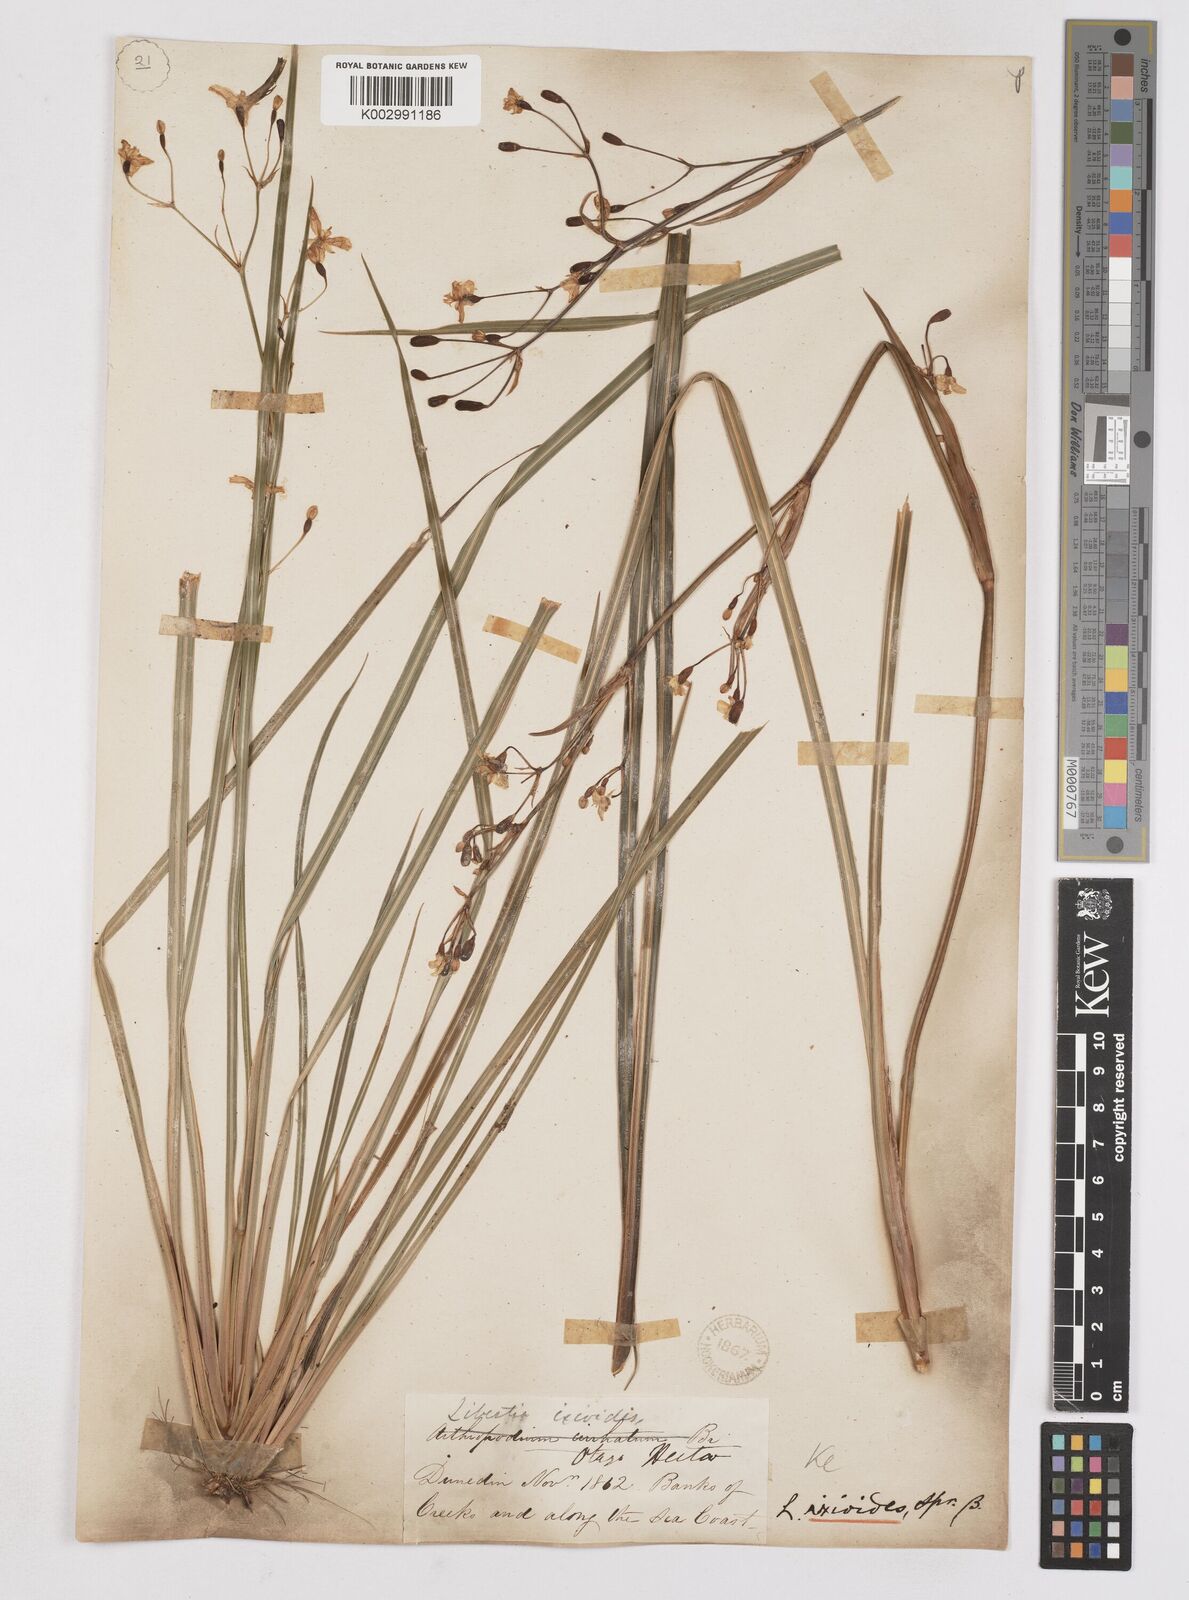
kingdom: Plantae
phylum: Tracheophyta
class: Liliopsida
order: Asparagales
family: Iridaceae
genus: Libertia
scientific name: Libertia ixioides
